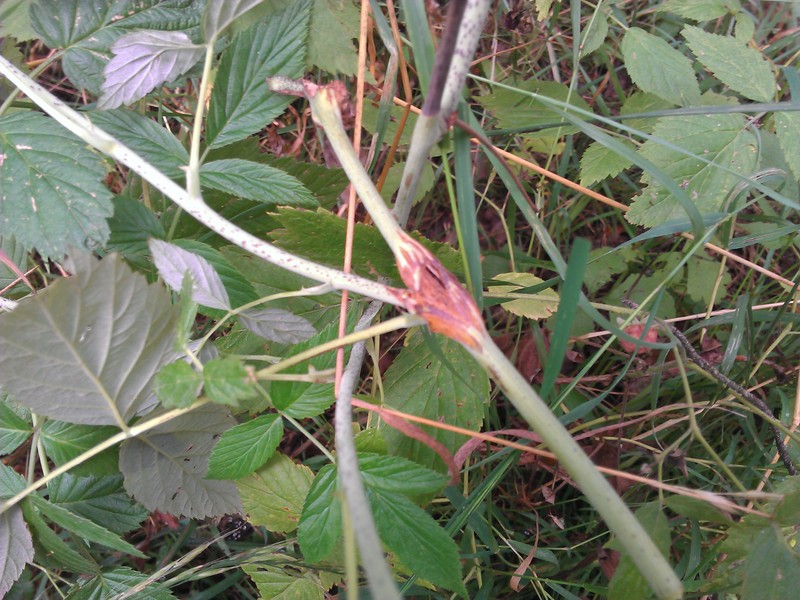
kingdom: Animalia
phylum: Arthropoda
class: Insecta
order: Diptera
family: Cecidomyiidae
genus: Lasioptera
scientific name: Lasioptera rubi
